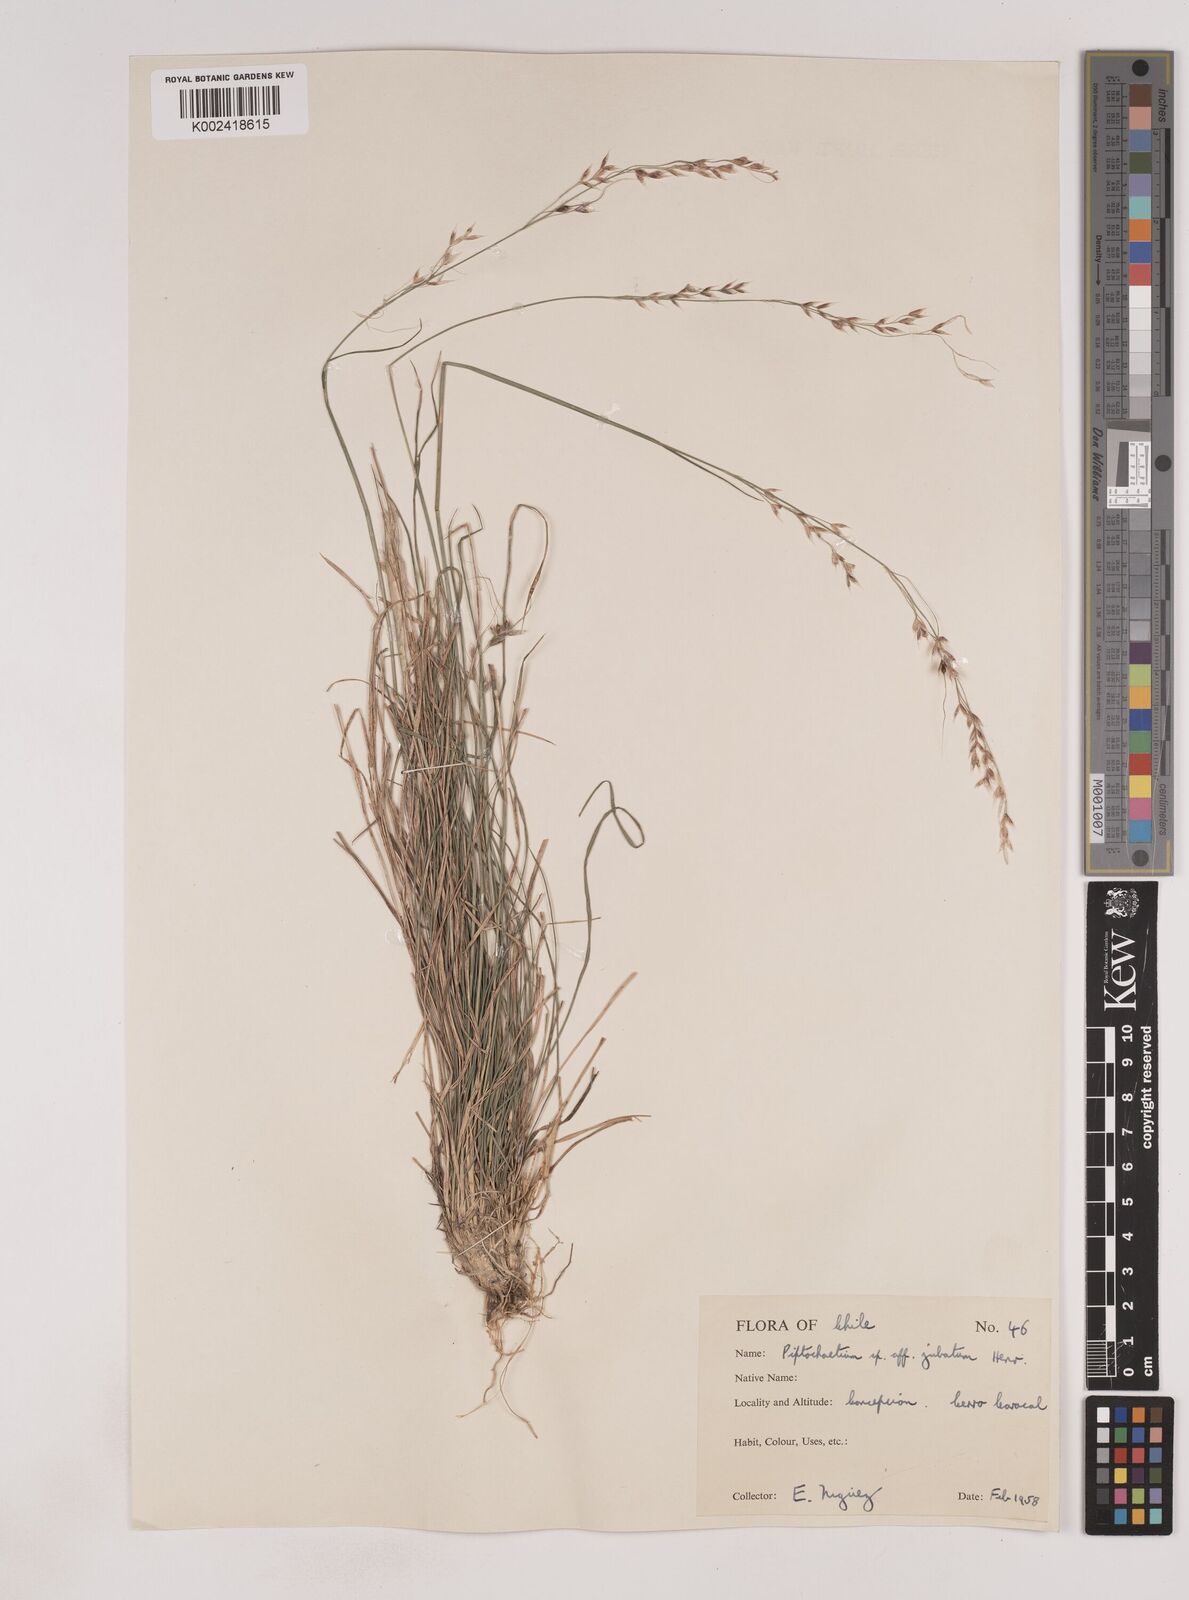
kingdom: Plantae
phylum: Tracheophyta
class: Liliopsida
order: Poales
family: Poaceae
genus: Piptochaetium
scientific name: Piptochaetium
